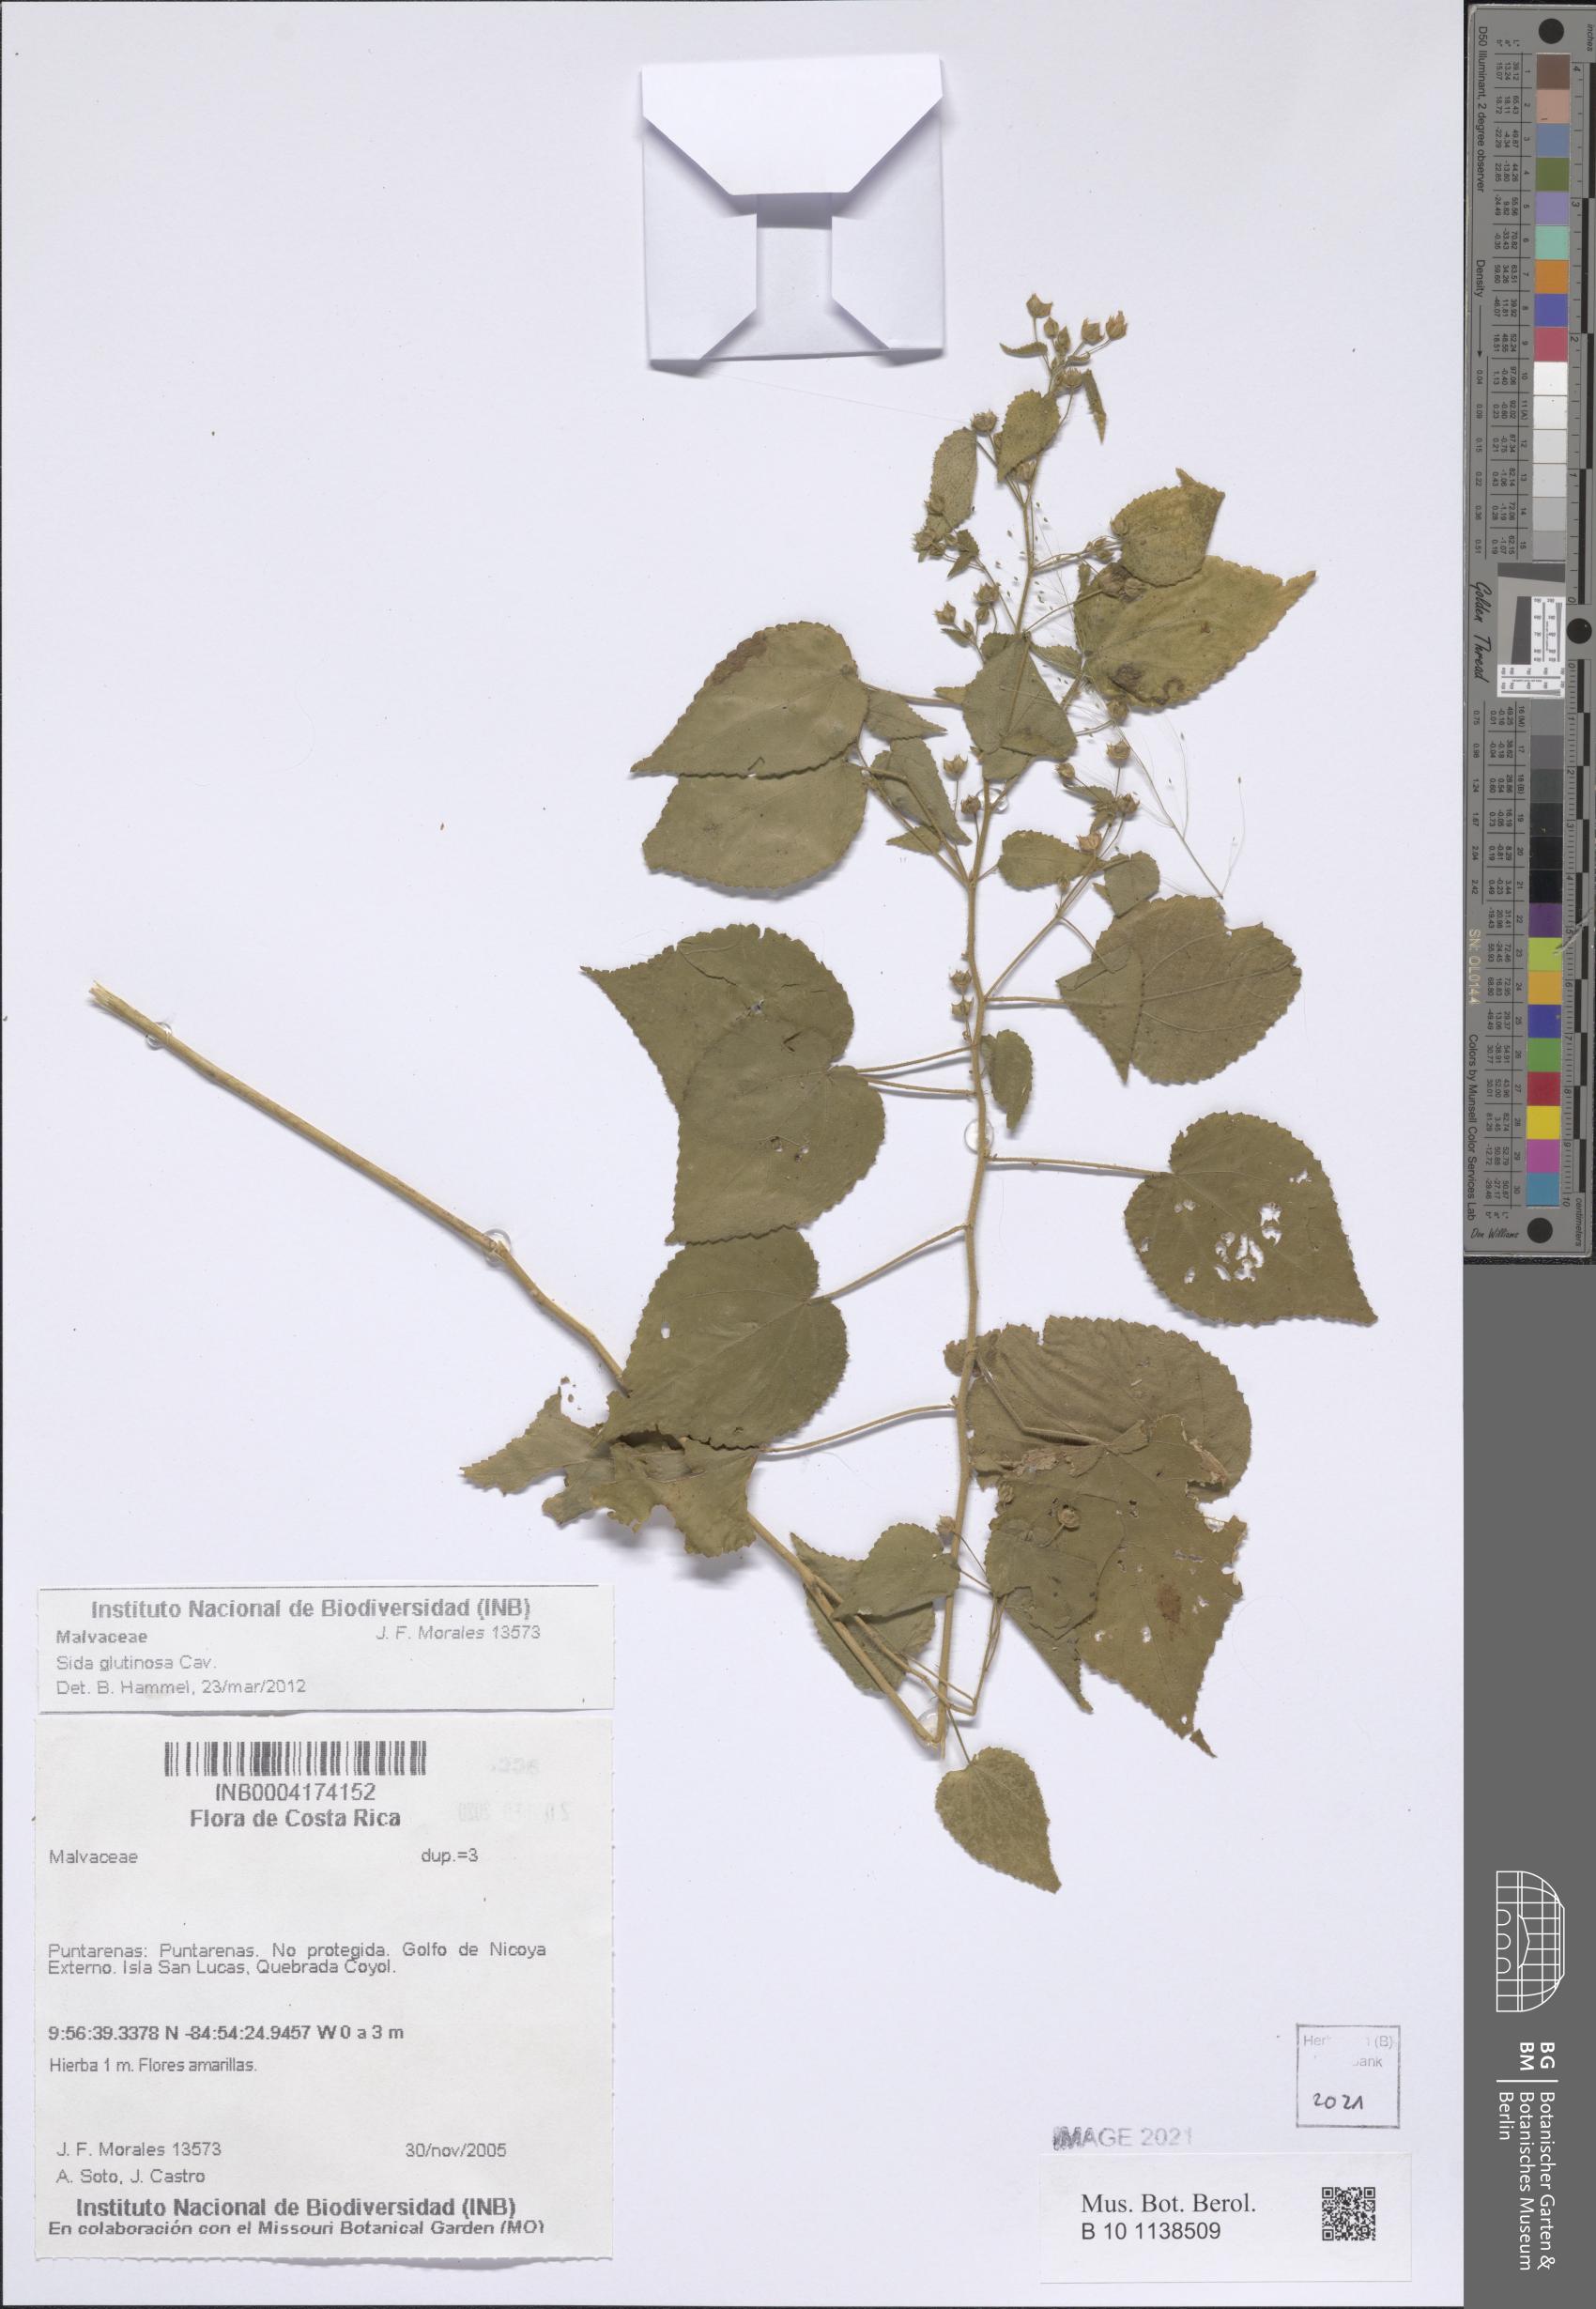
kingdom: Plantae
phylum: Tracheophyta
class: Magnoliopsida
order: Malvales
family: Malvaceae
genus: Sida
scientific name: Sida glutinosa
